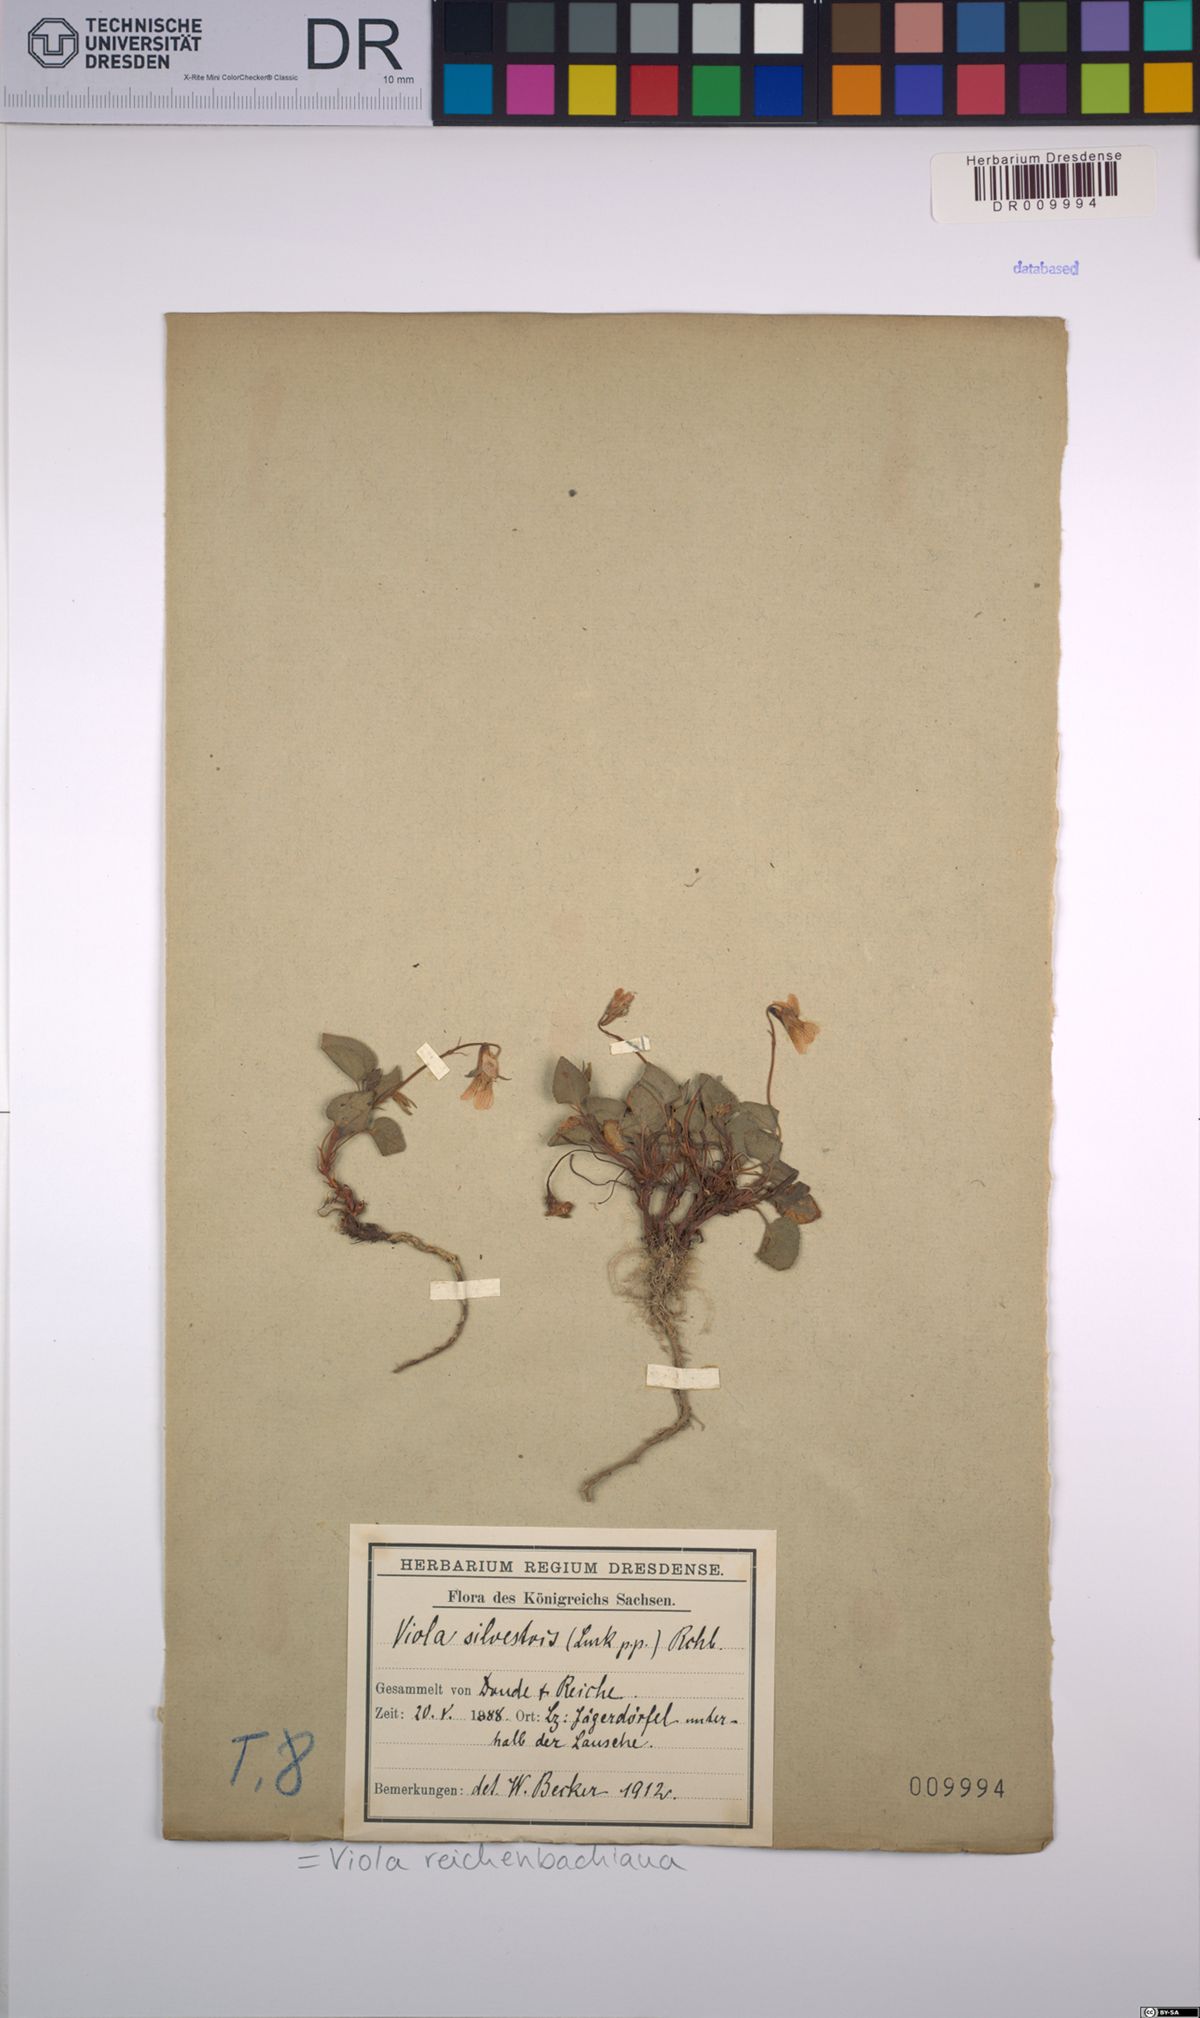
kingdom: Plantae
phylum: Tracheophyta
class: Magnoliopsida
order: Malpighiales
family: Violaceae
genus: Viola
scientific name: Viola reichenbachiana
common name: Early dog-violet
